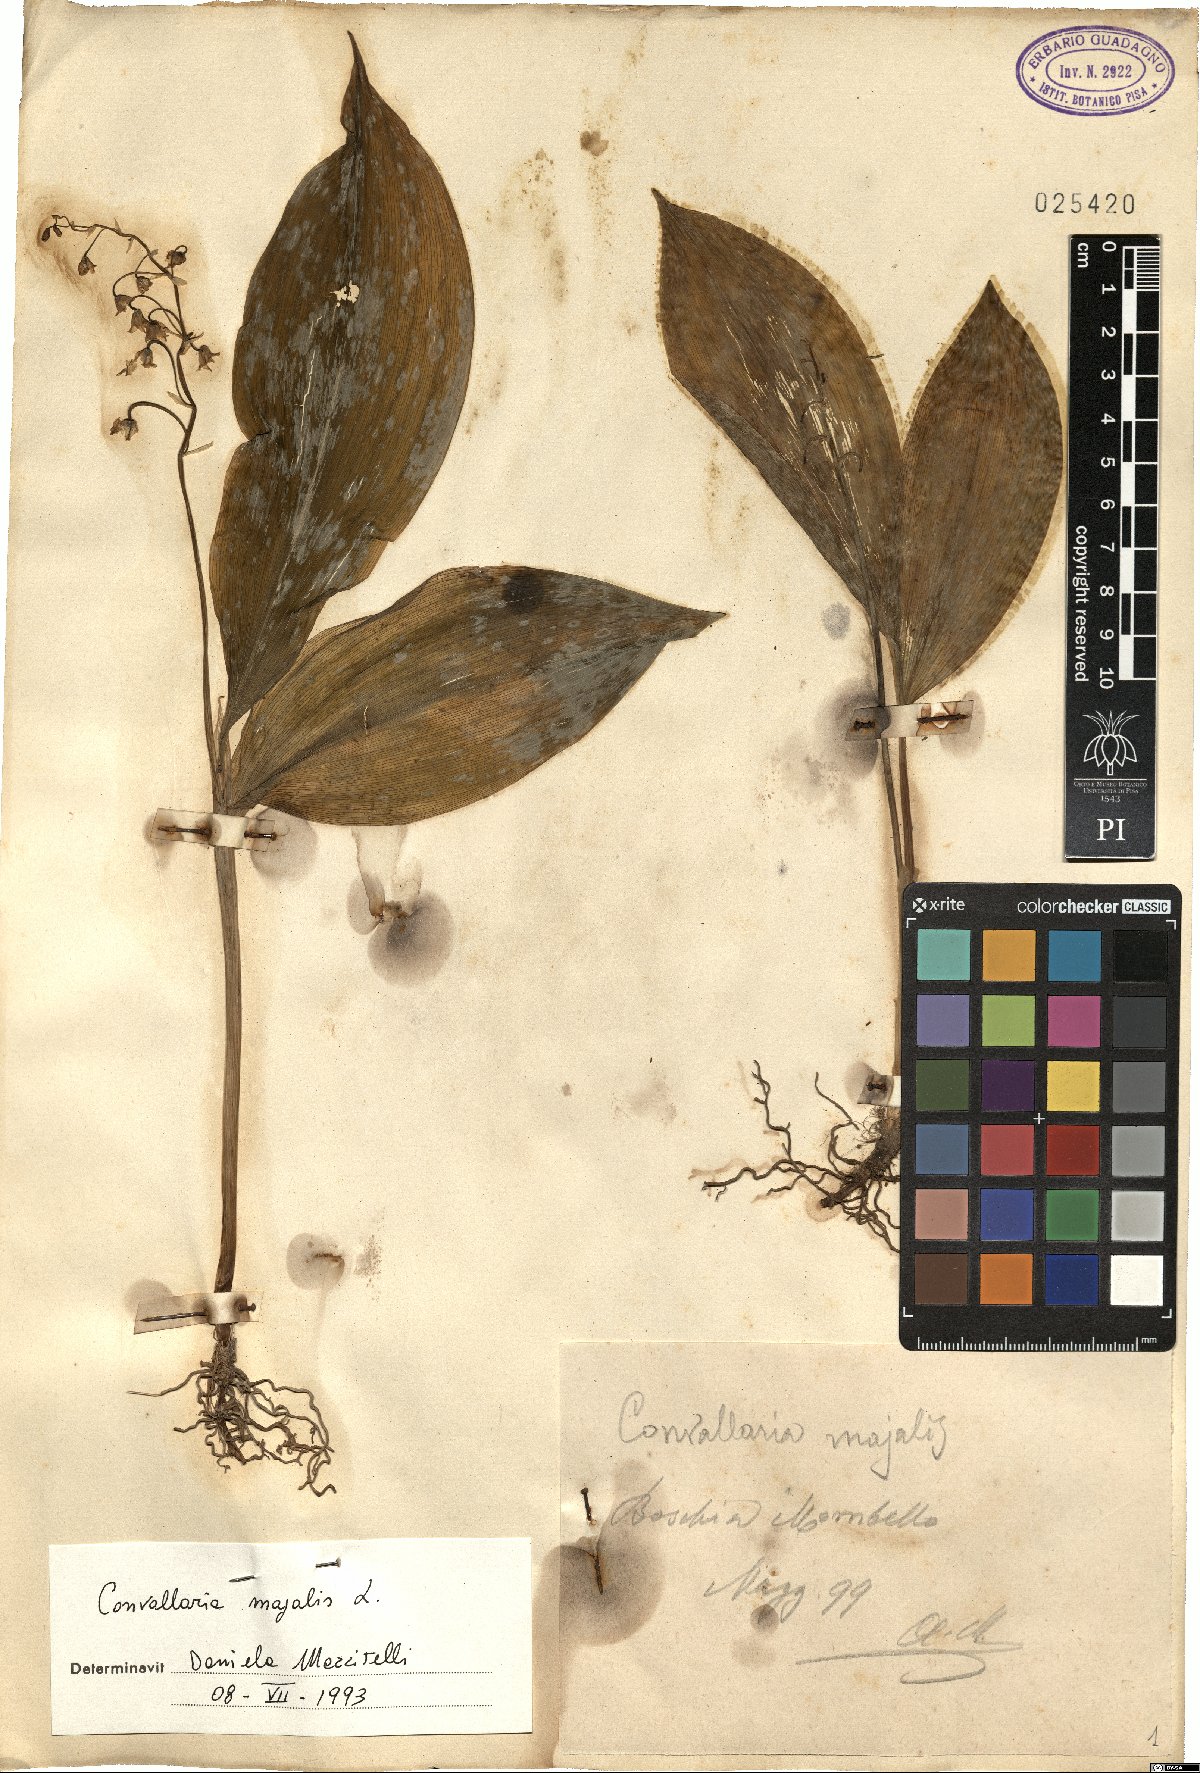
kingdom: Plantae
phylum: Tracheophyta
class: Liliopsida
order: Asparagales
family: Asparagaceae
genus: Convallaria
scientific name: Convallaria majalis
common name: Lily-of-the-valley
